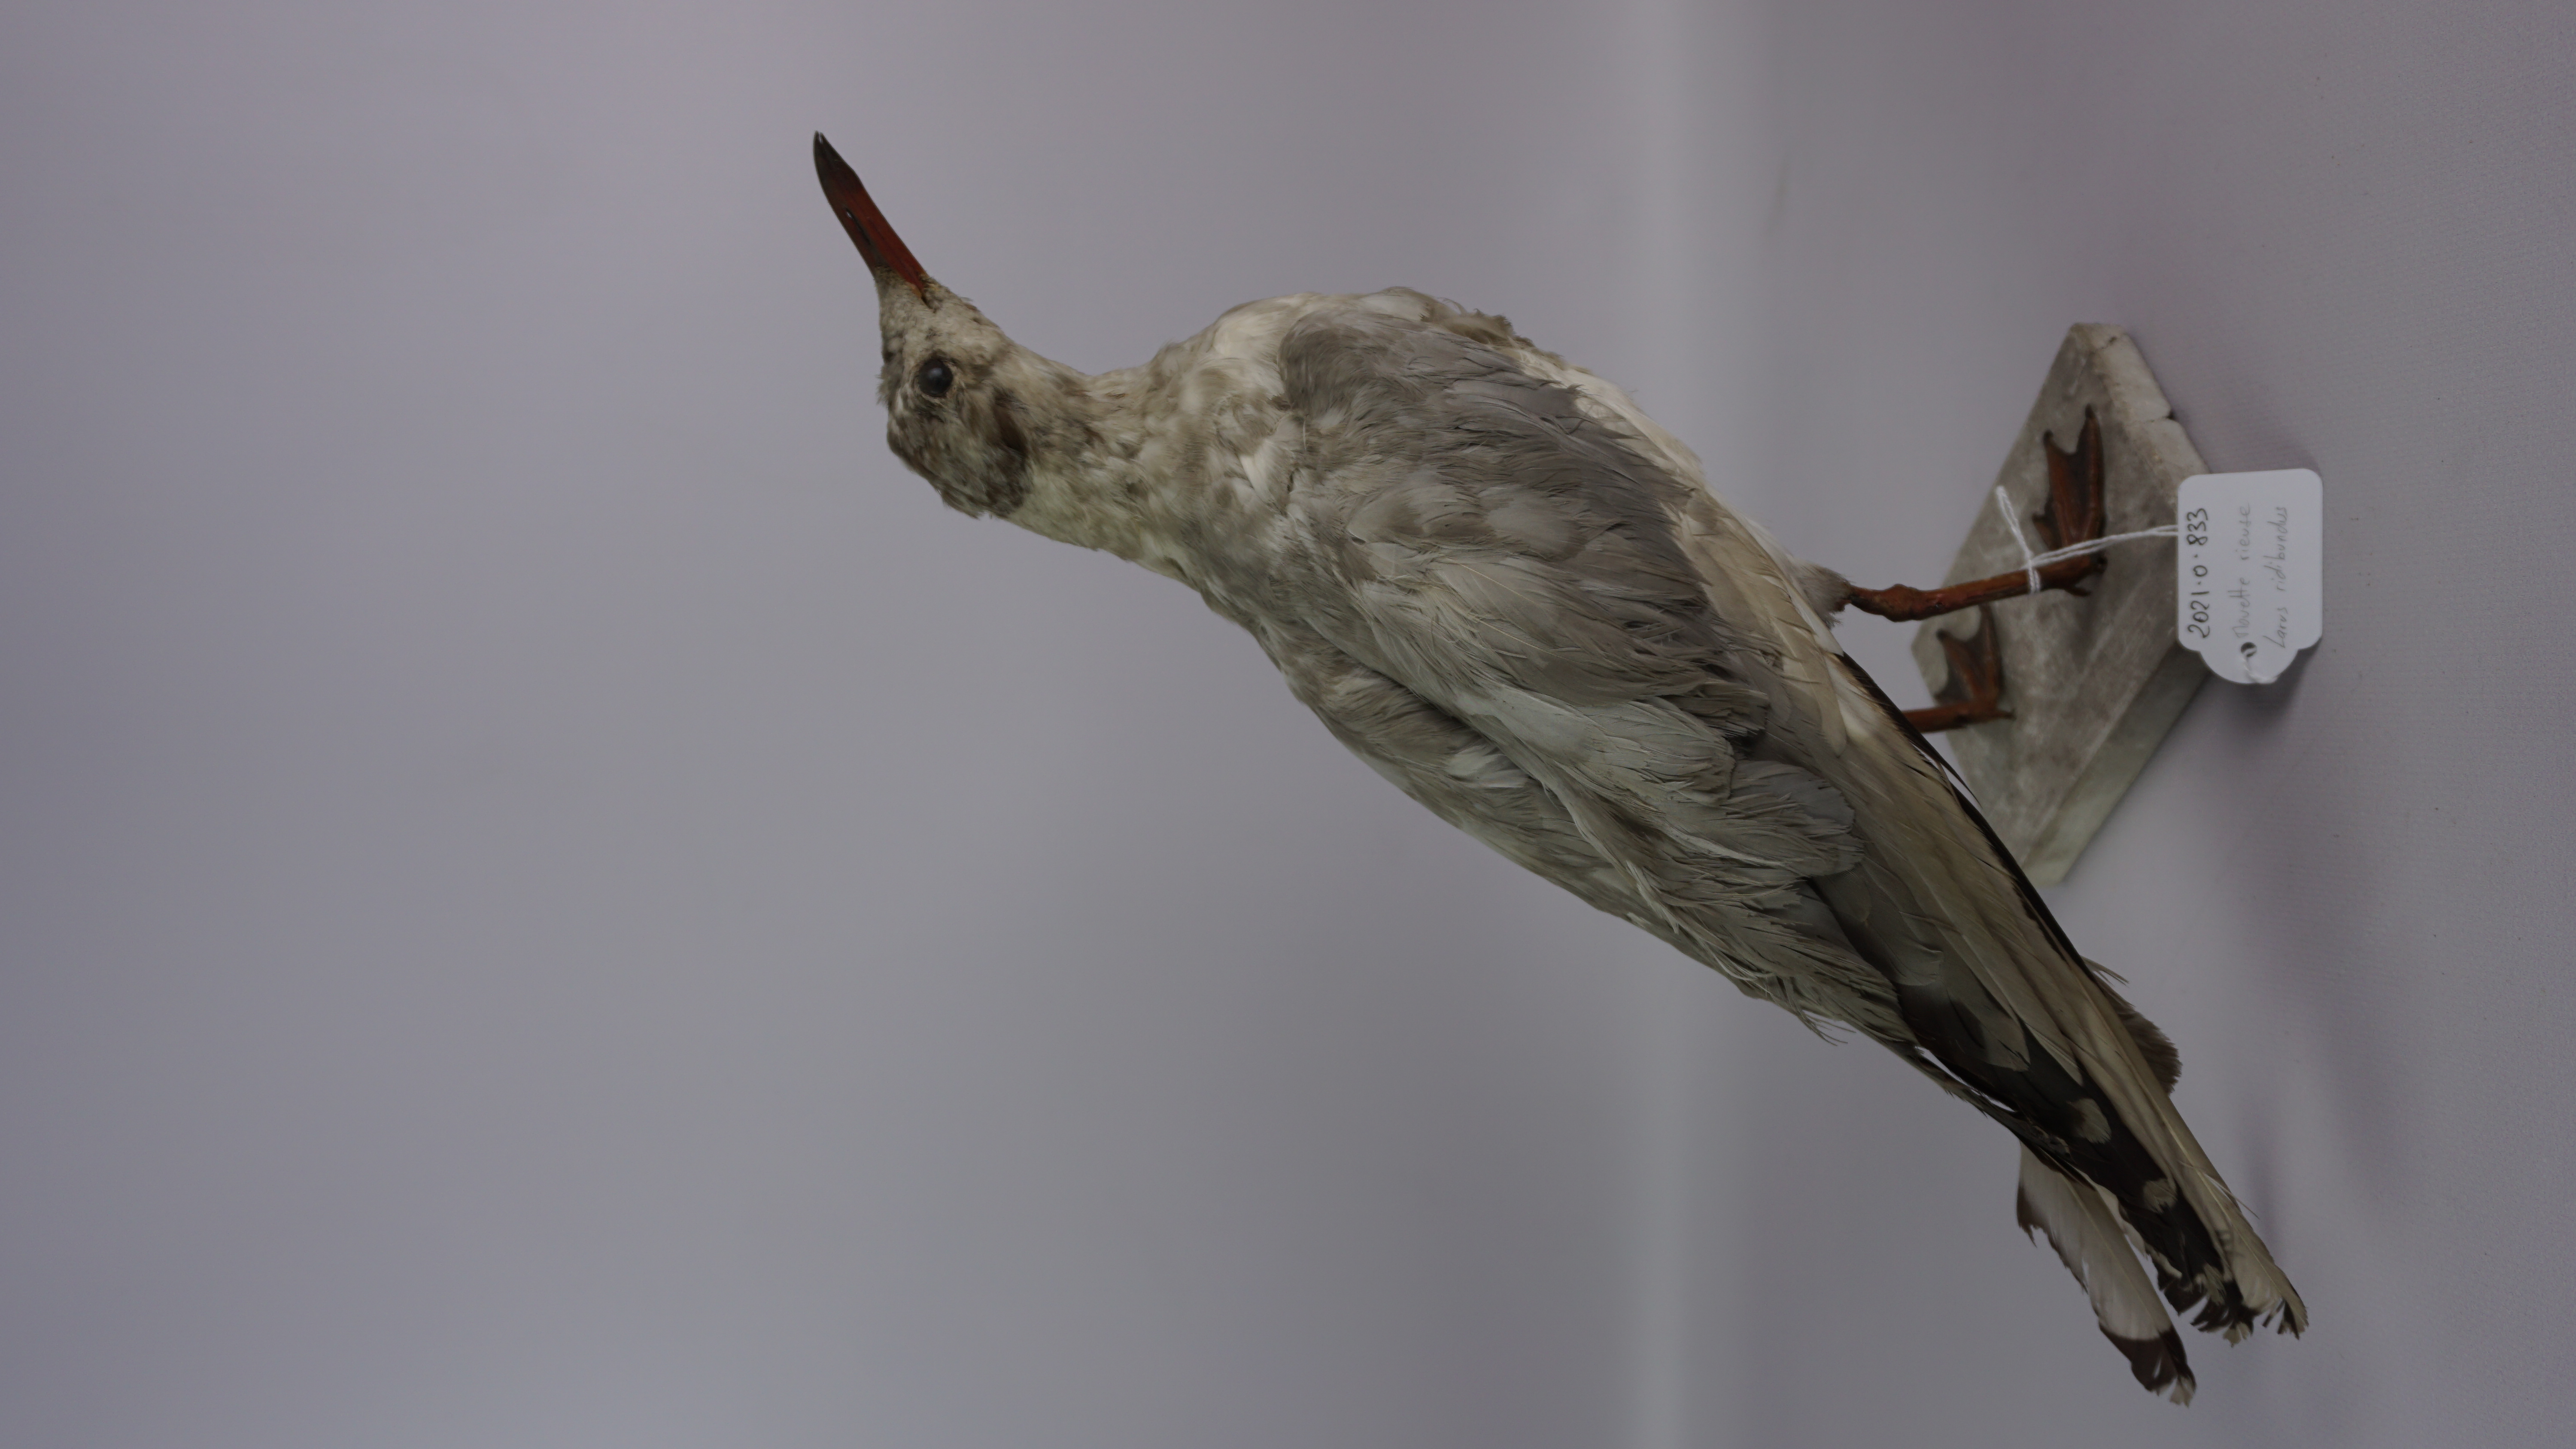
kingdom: Animalia
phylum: Chordata
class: Aves
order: Charadriiformes
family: Laridae
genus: Chroicocephalus
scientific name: Chroicocephalus ridibundus
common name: Black-headed gull
